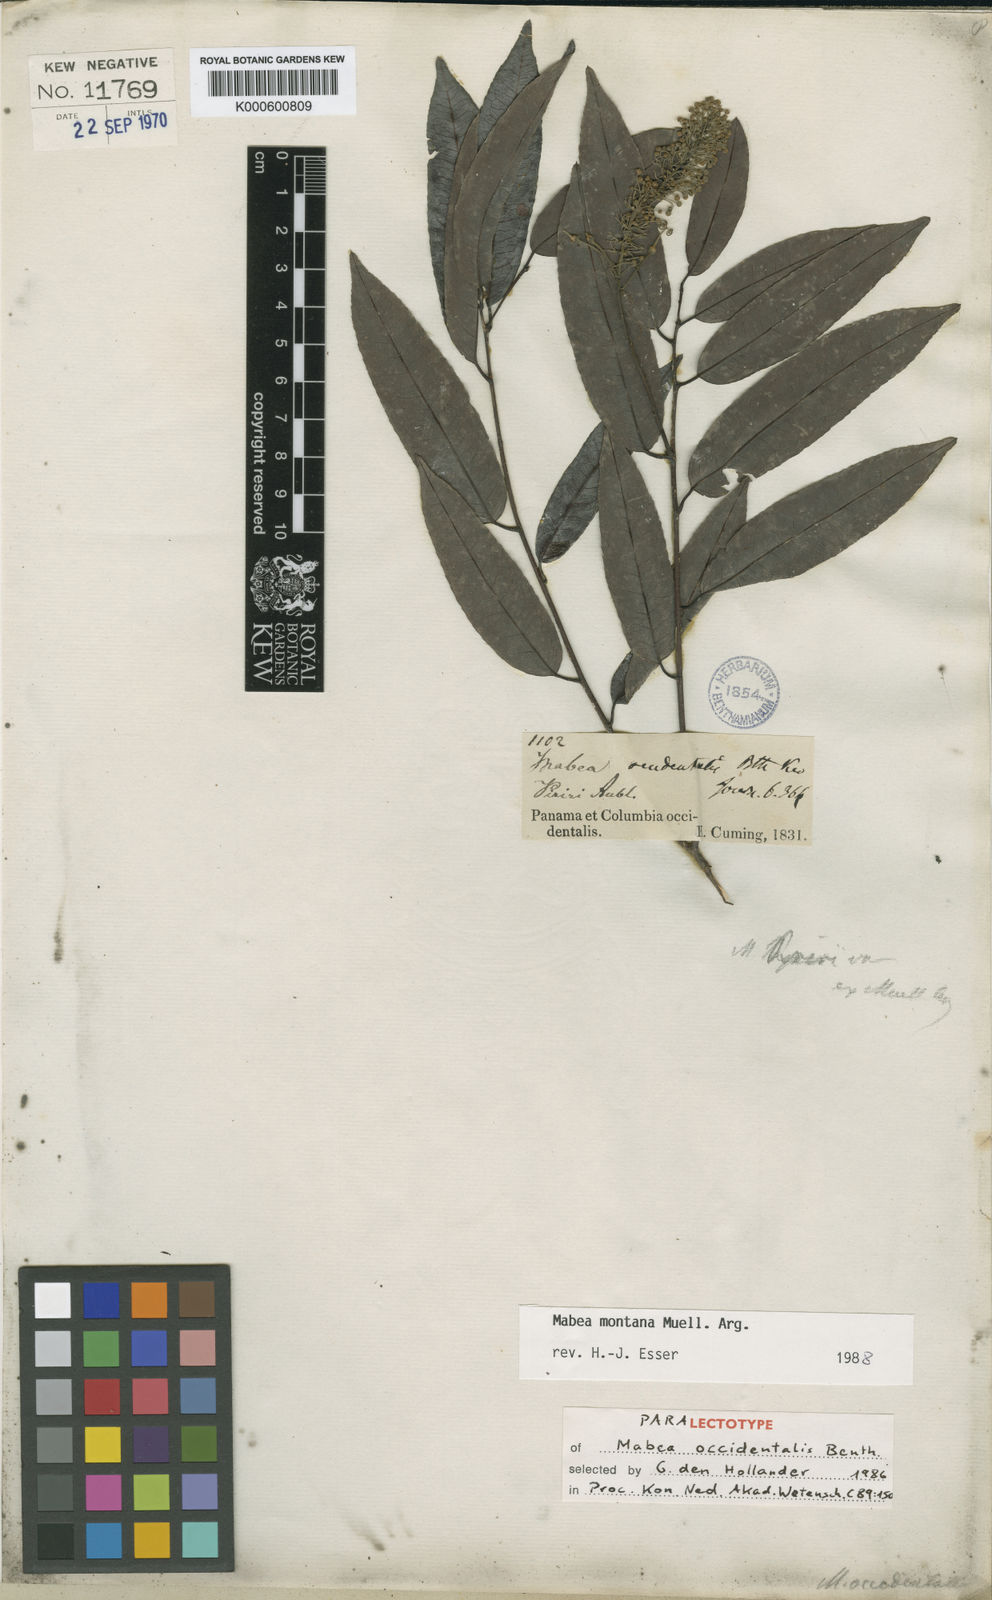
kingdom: Plantae
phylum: Tracheophyta
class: Magnoliopsida
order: Malpighiales
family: Euphorbiaceae
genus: Mabea
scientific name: Mabea occidentalis
